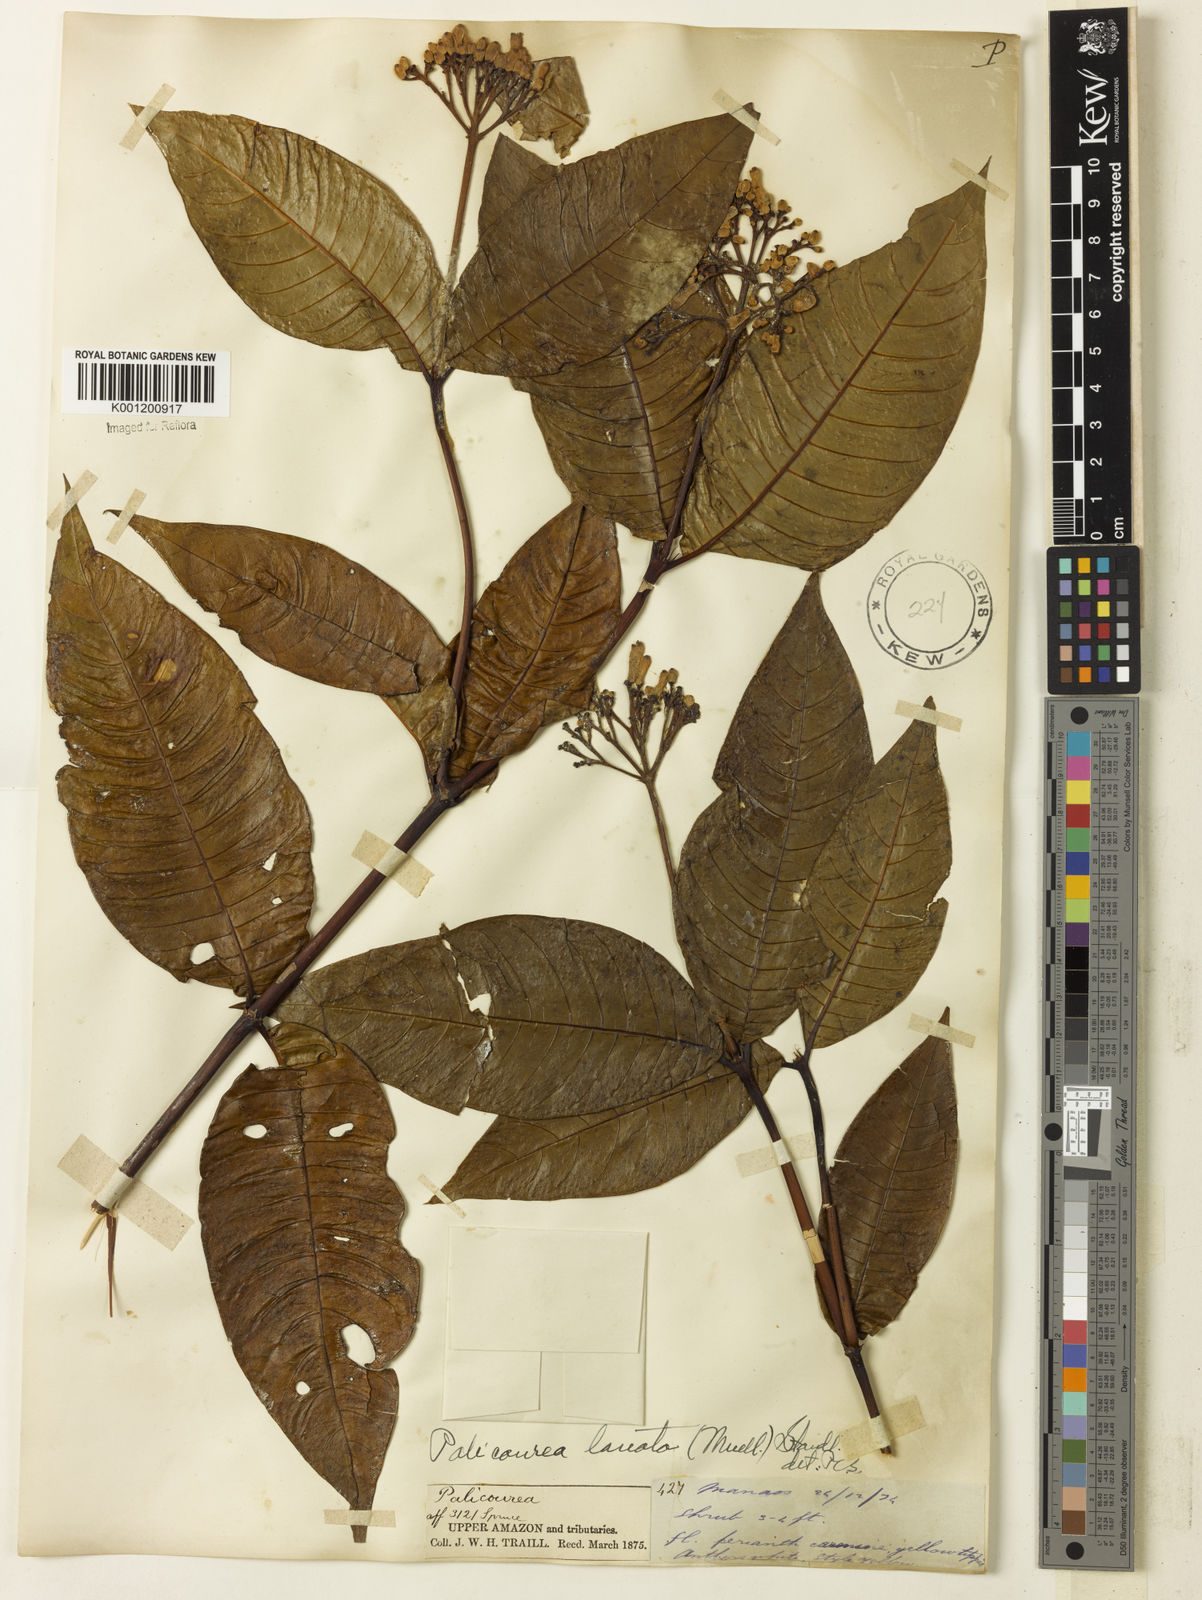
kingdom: Plantae
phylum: Tracheophyta
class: Magnoliopsida
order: Gentianales
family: Rubiaceae
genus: Palicourea
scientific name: Palicourea
